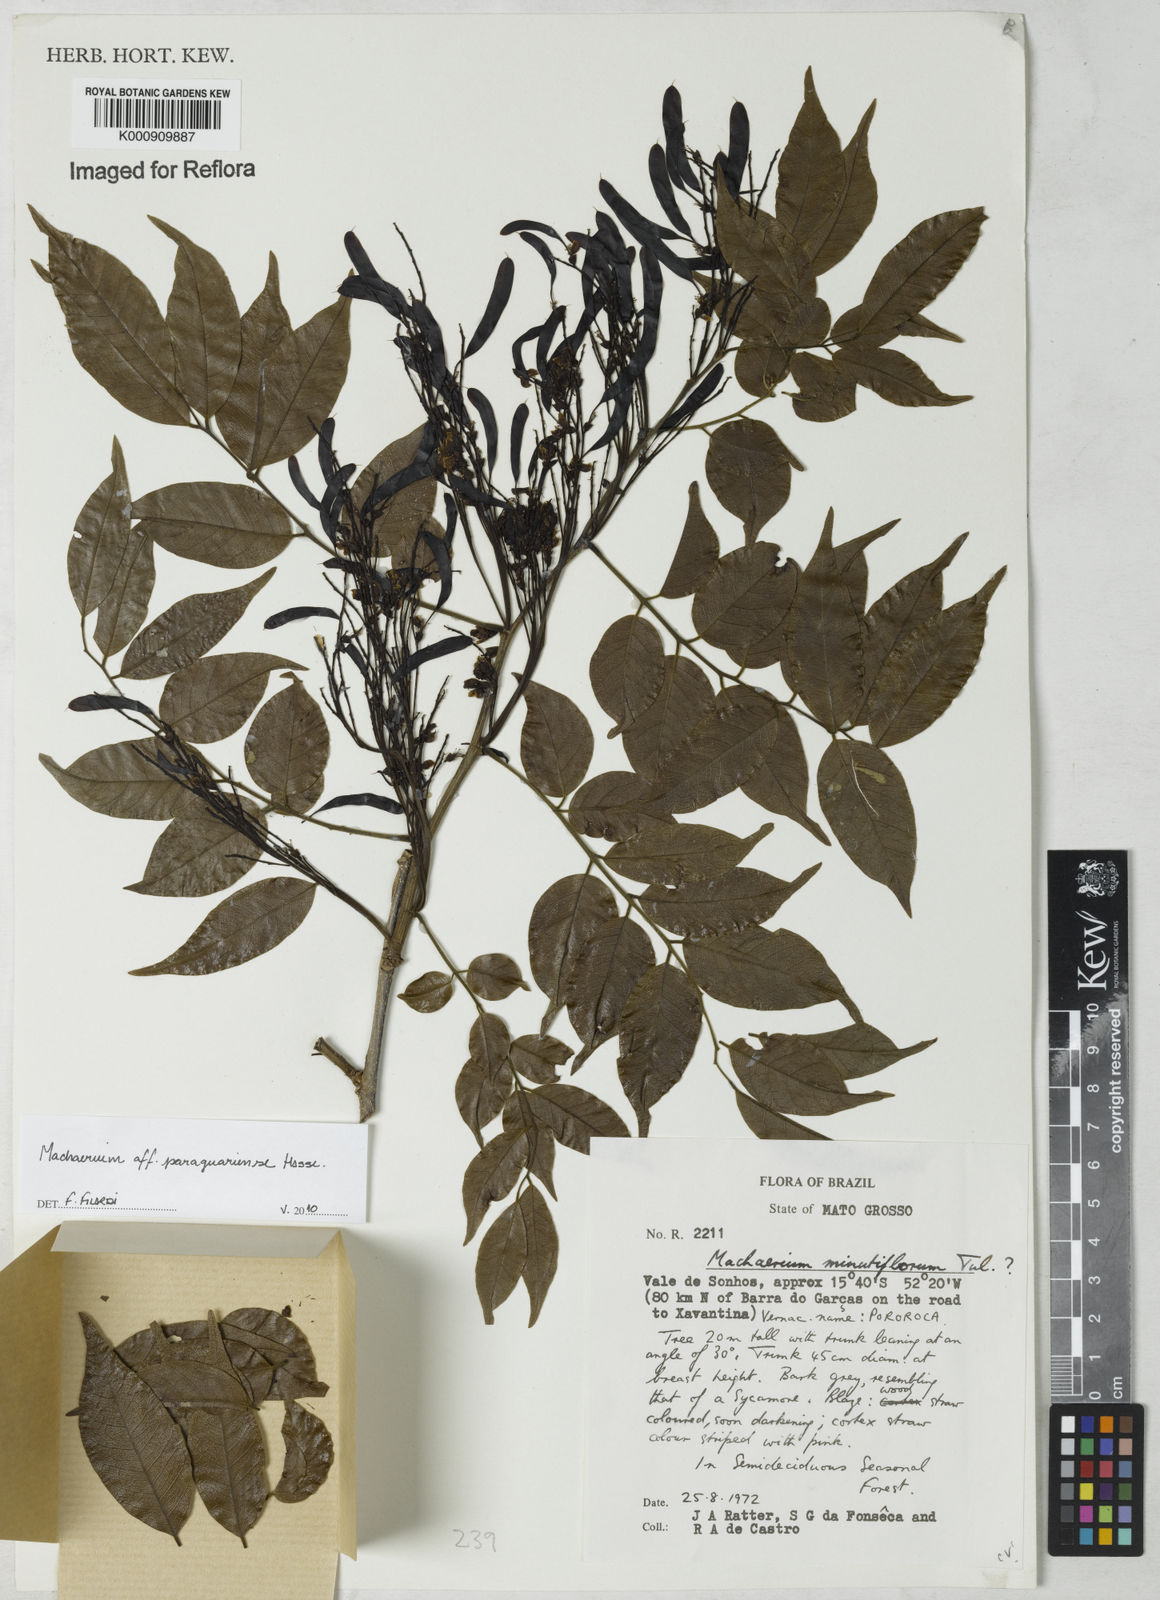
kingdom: Plantae
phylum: Tracheophyta
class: Magnoliopsida
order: Fabales
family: Fabaceae
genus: Machaerium
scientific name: Machaerium oblongifolium
